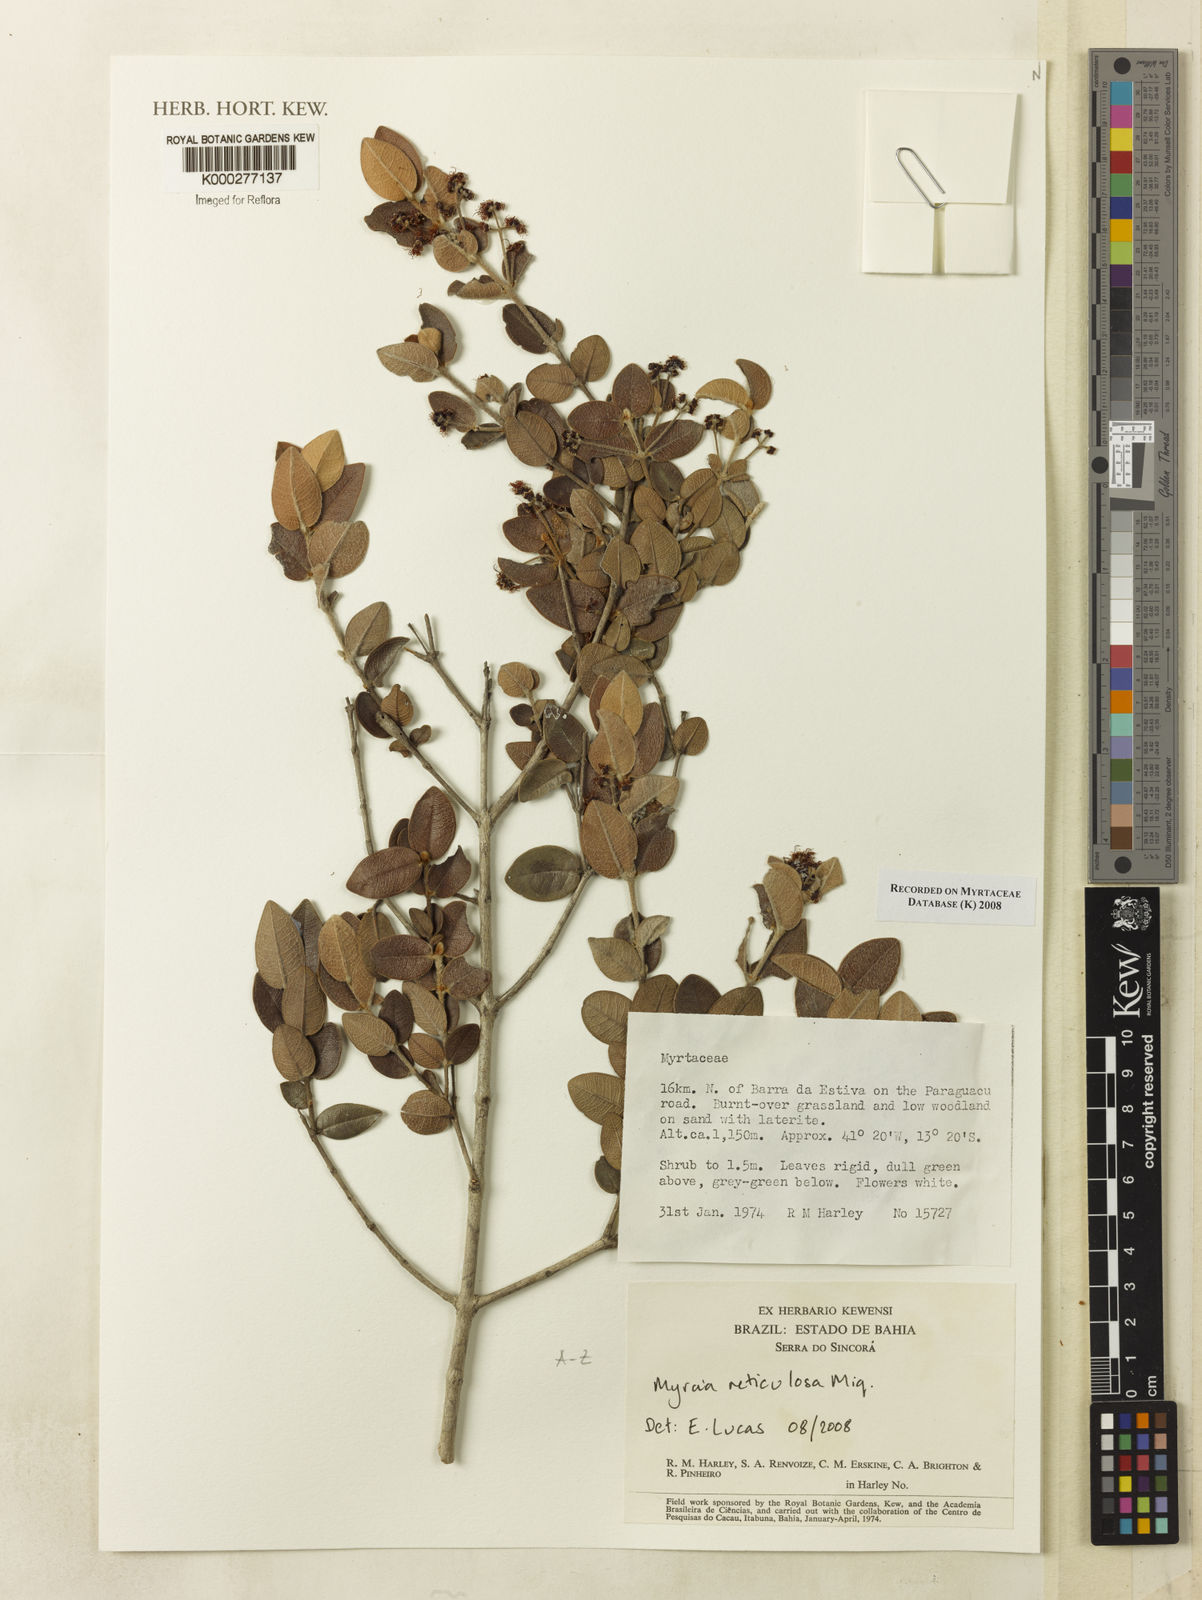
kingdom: Plantae
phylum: Tracheophyta
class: Magnoliopsida
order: Myrtales
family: Myrtaceae
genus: Myrcia
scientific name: Myrcia reticulosa
